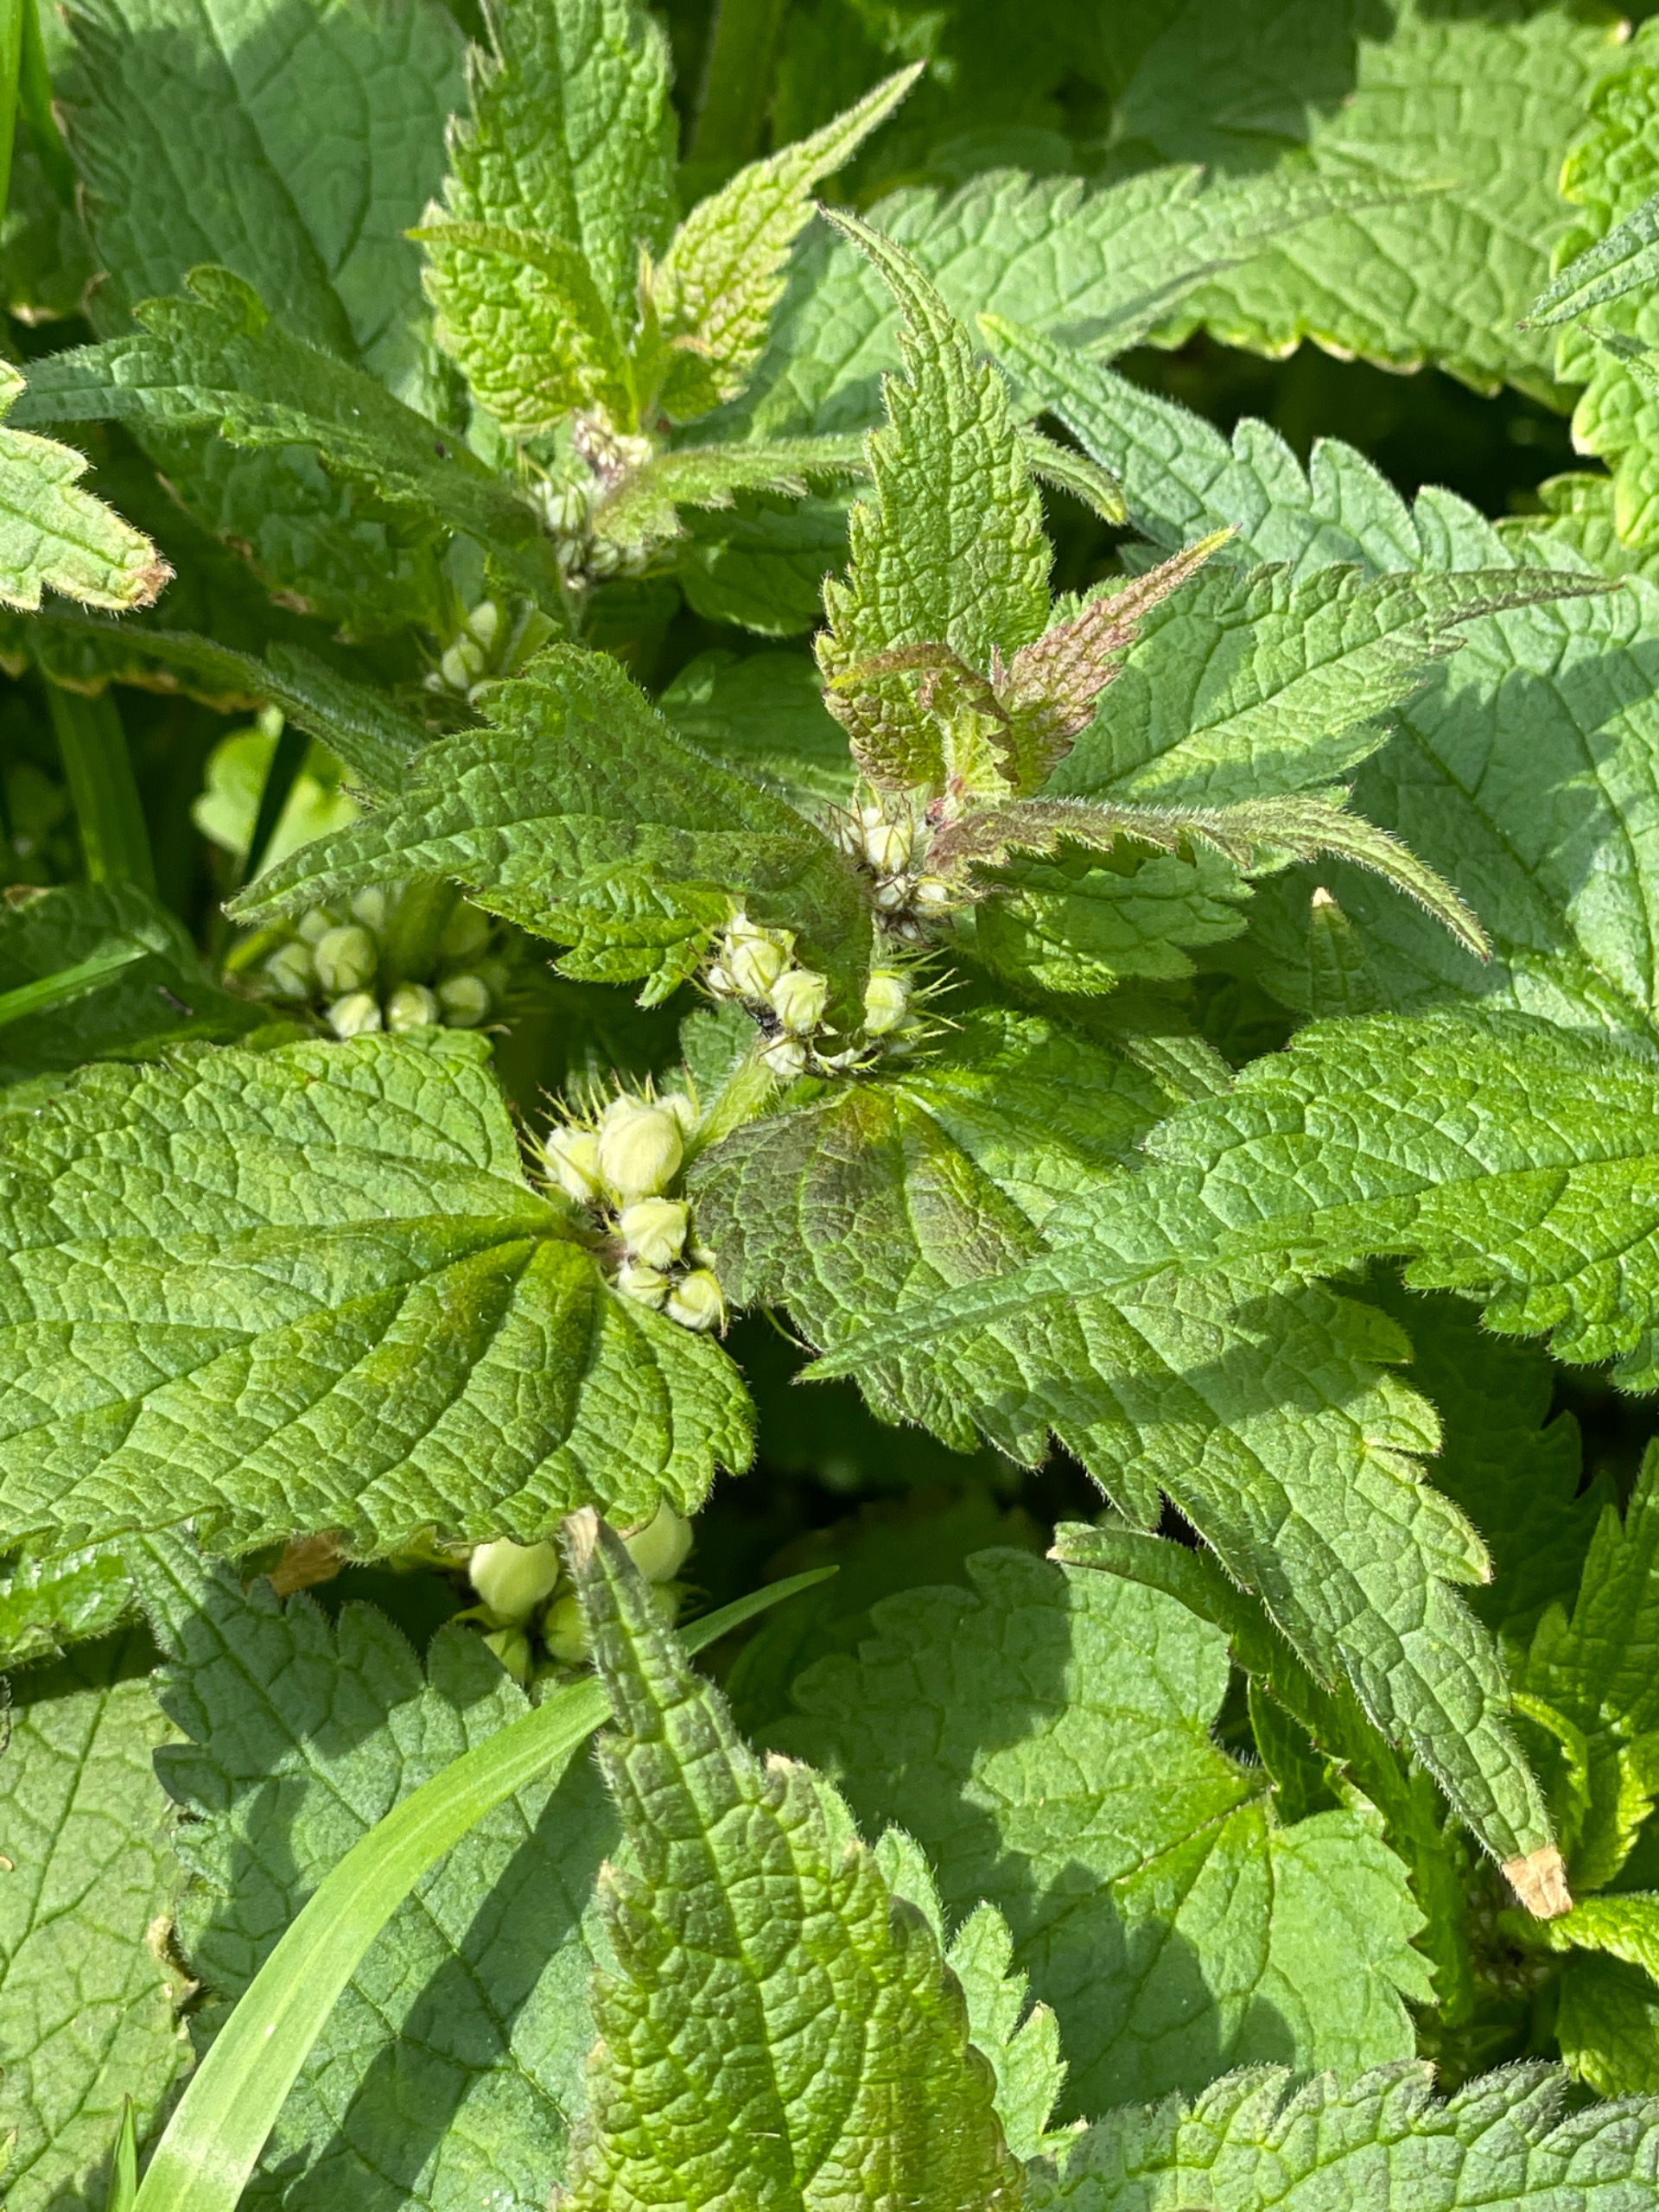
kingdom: Plantae
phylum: Tracheophyta
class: Magnoliopsida
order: Lamiales
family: Lamiaceae
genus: Lamium
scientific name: Lamium album
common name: Døvnælde
